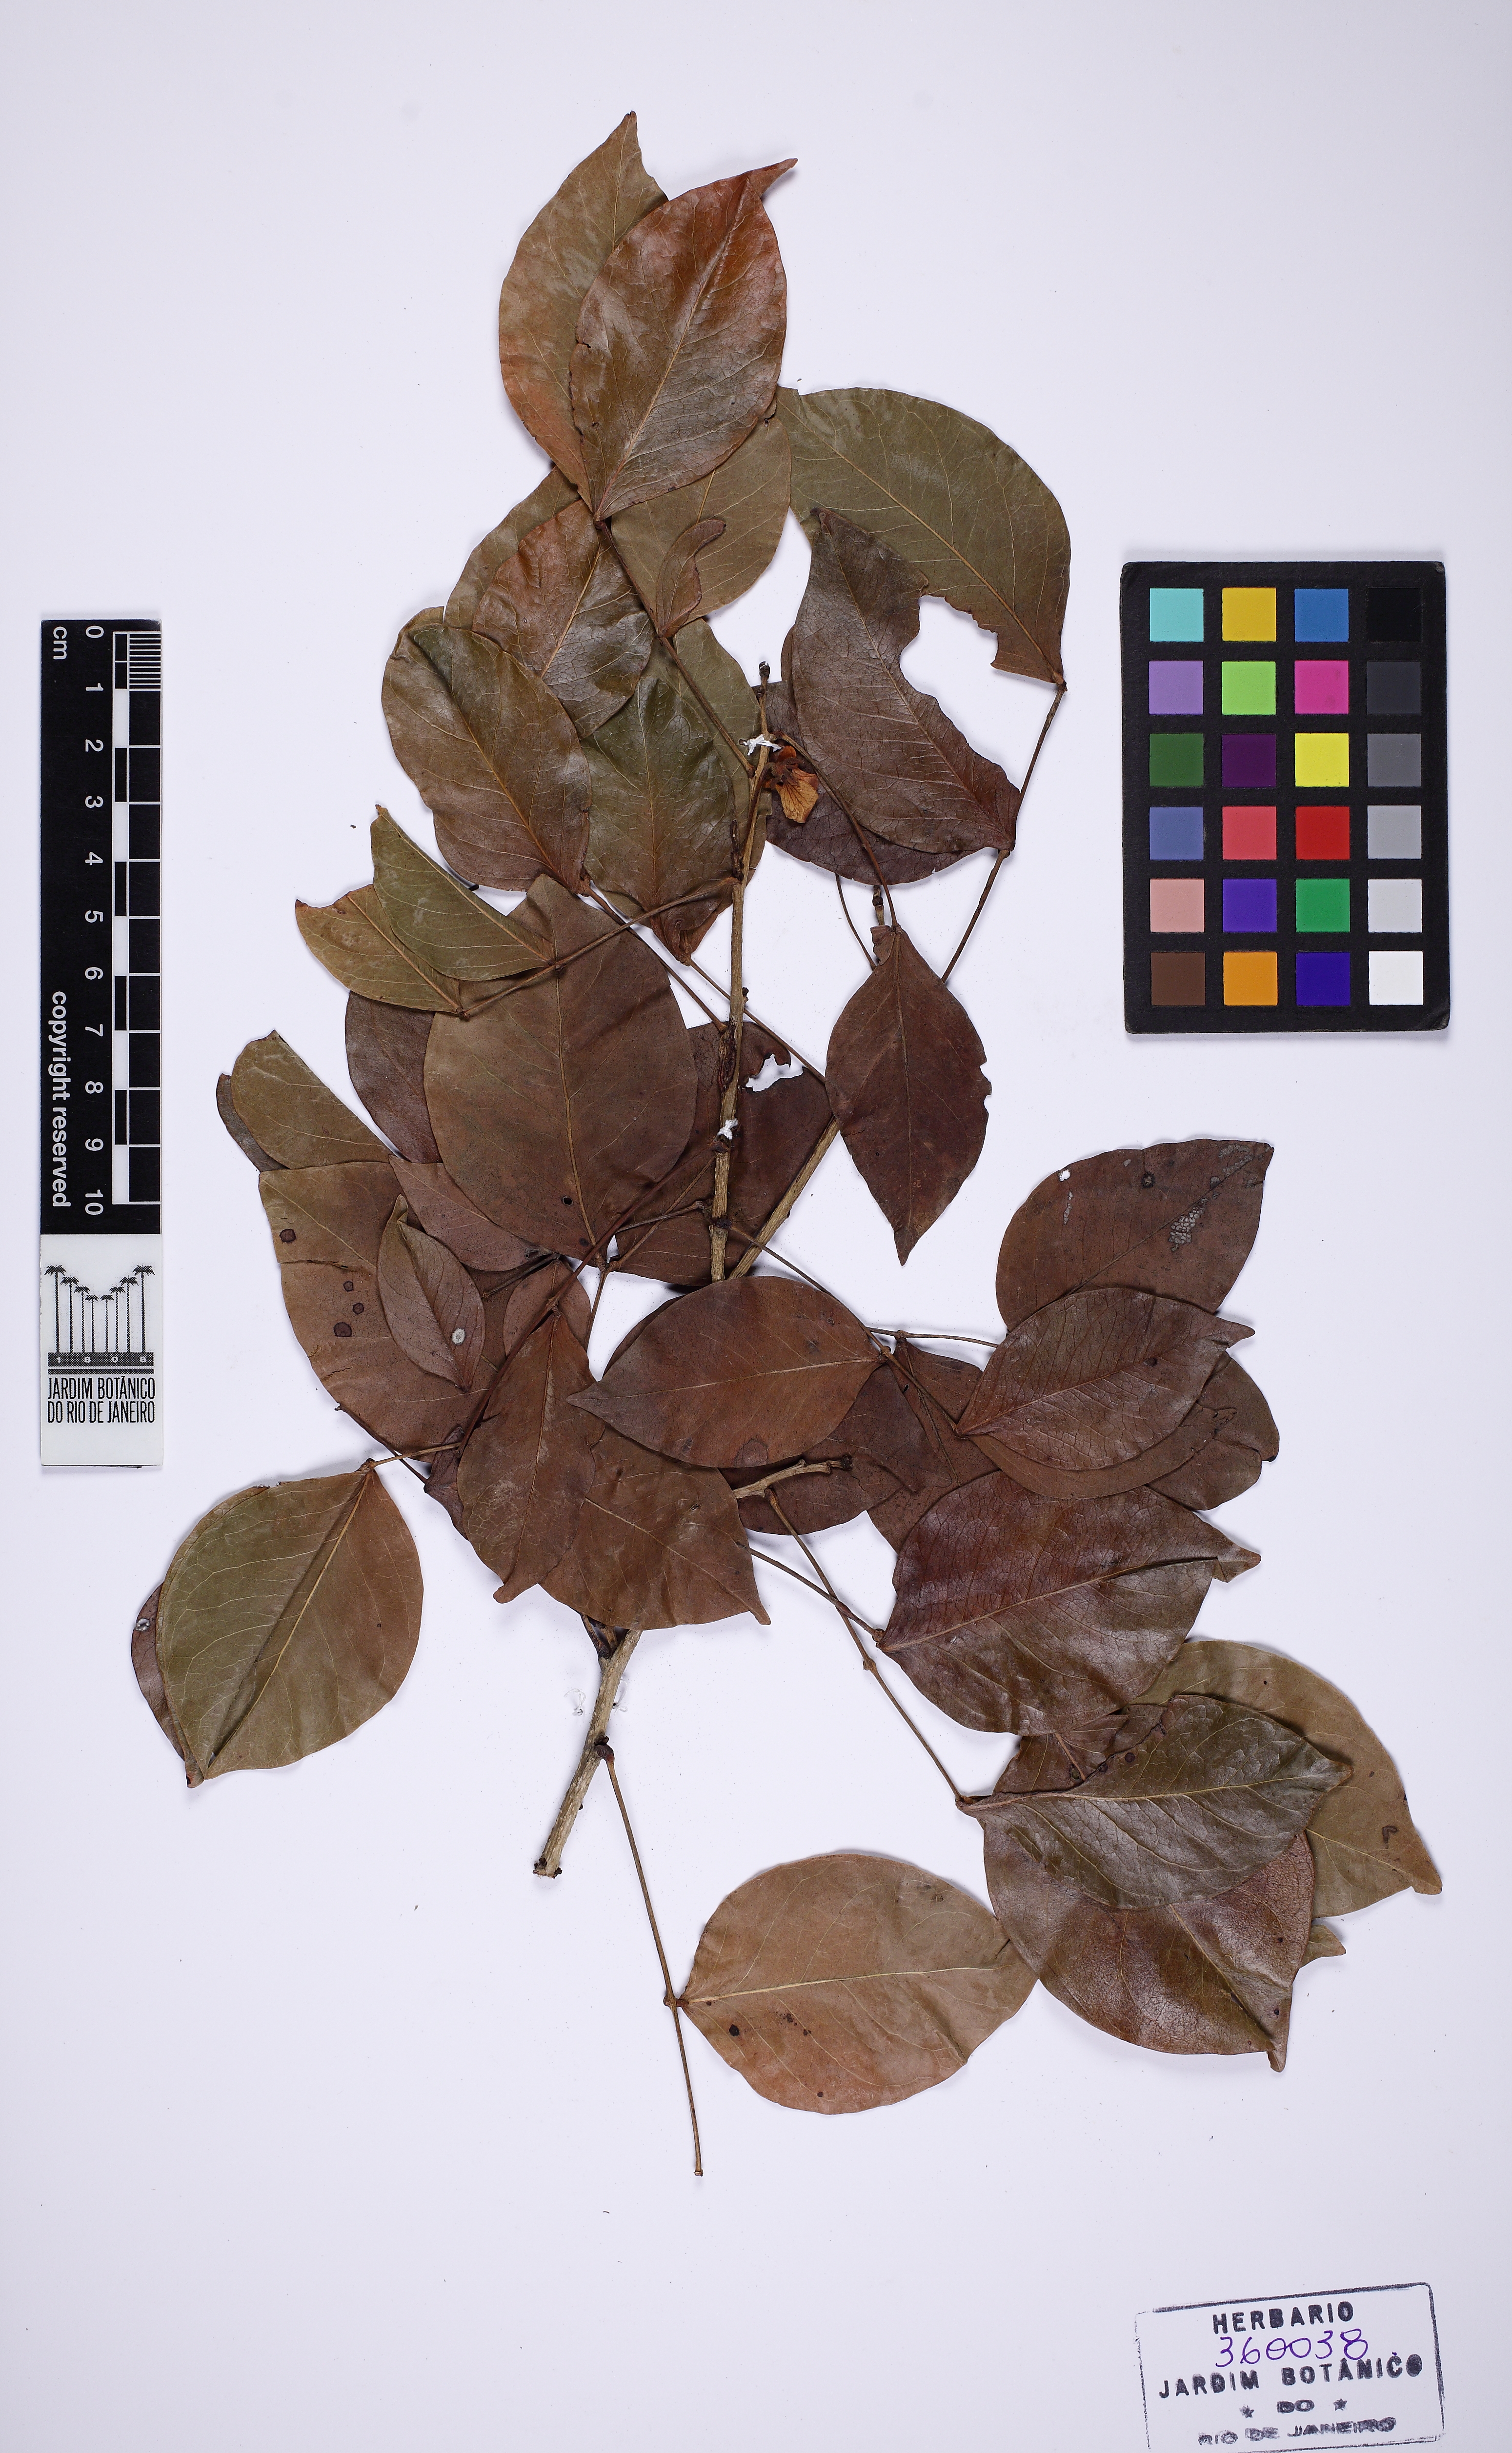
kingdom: Plantae
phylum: Tracheophyta
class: Magnoliopsida
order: Fabales
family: Fabaceae
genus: Chamaecrista
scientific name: Chamaecrista
